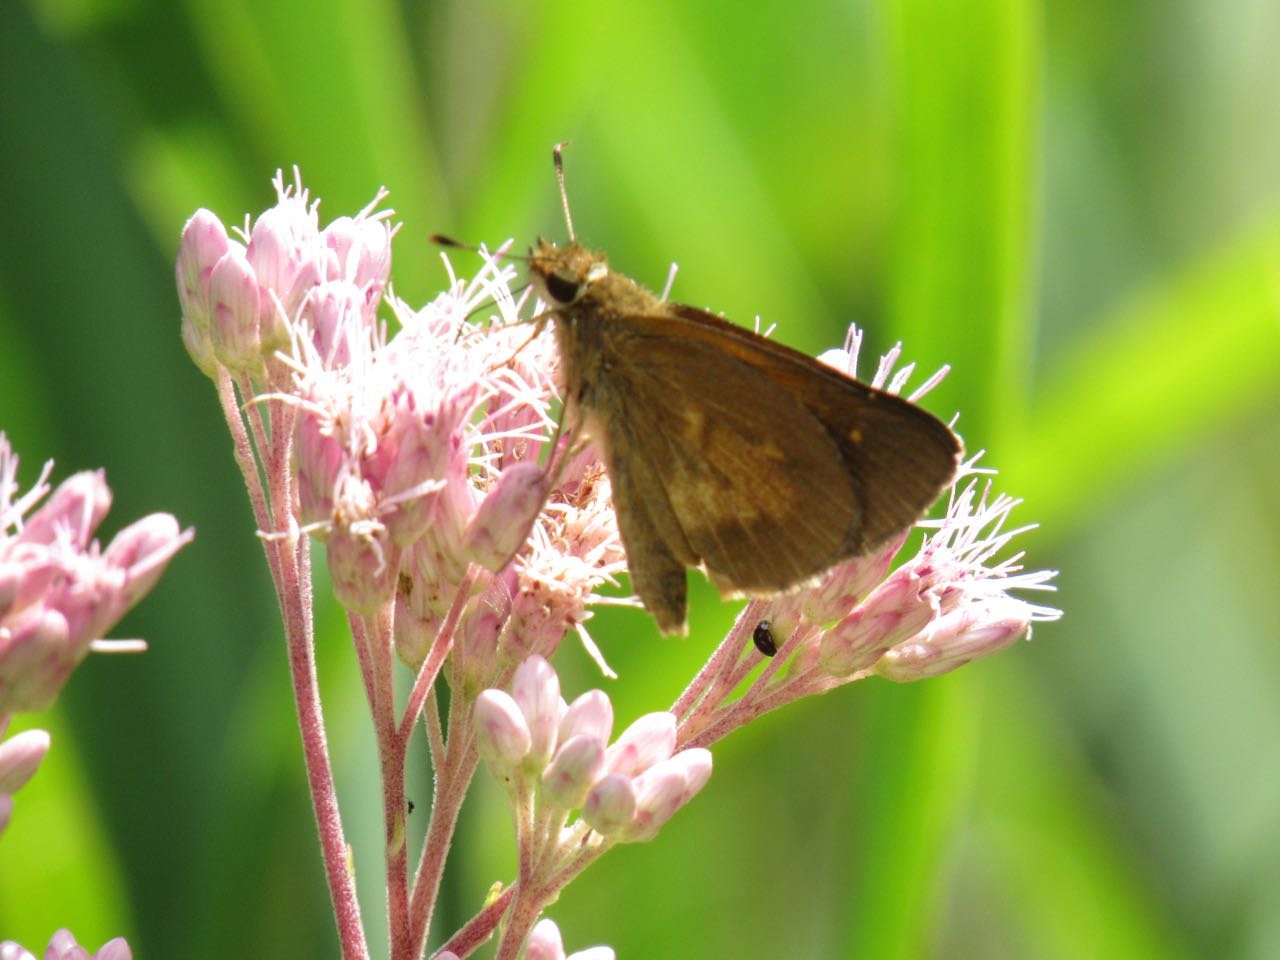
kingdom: Animalia
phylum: Arthropoda
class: Insecta
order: Lepidoptera
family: Hesperiidae
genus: Poanes
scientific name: Poanes viator
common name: Broad-winged Skipper
